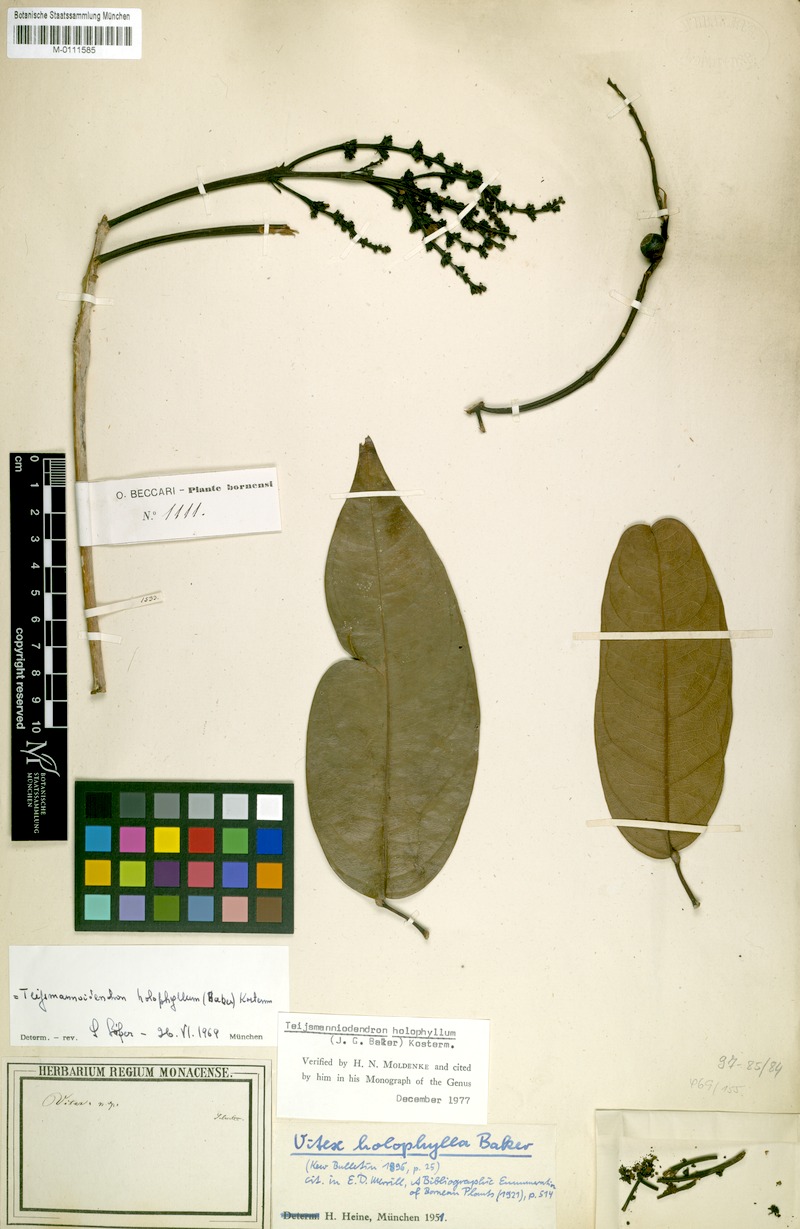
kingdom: Plantae
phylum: Tracheophyta
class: Magnoliopsida
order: Lamiales
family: Lamiaceae
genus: Teijsmanniodendron
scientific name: Teijsmanniodendron holophyllum
